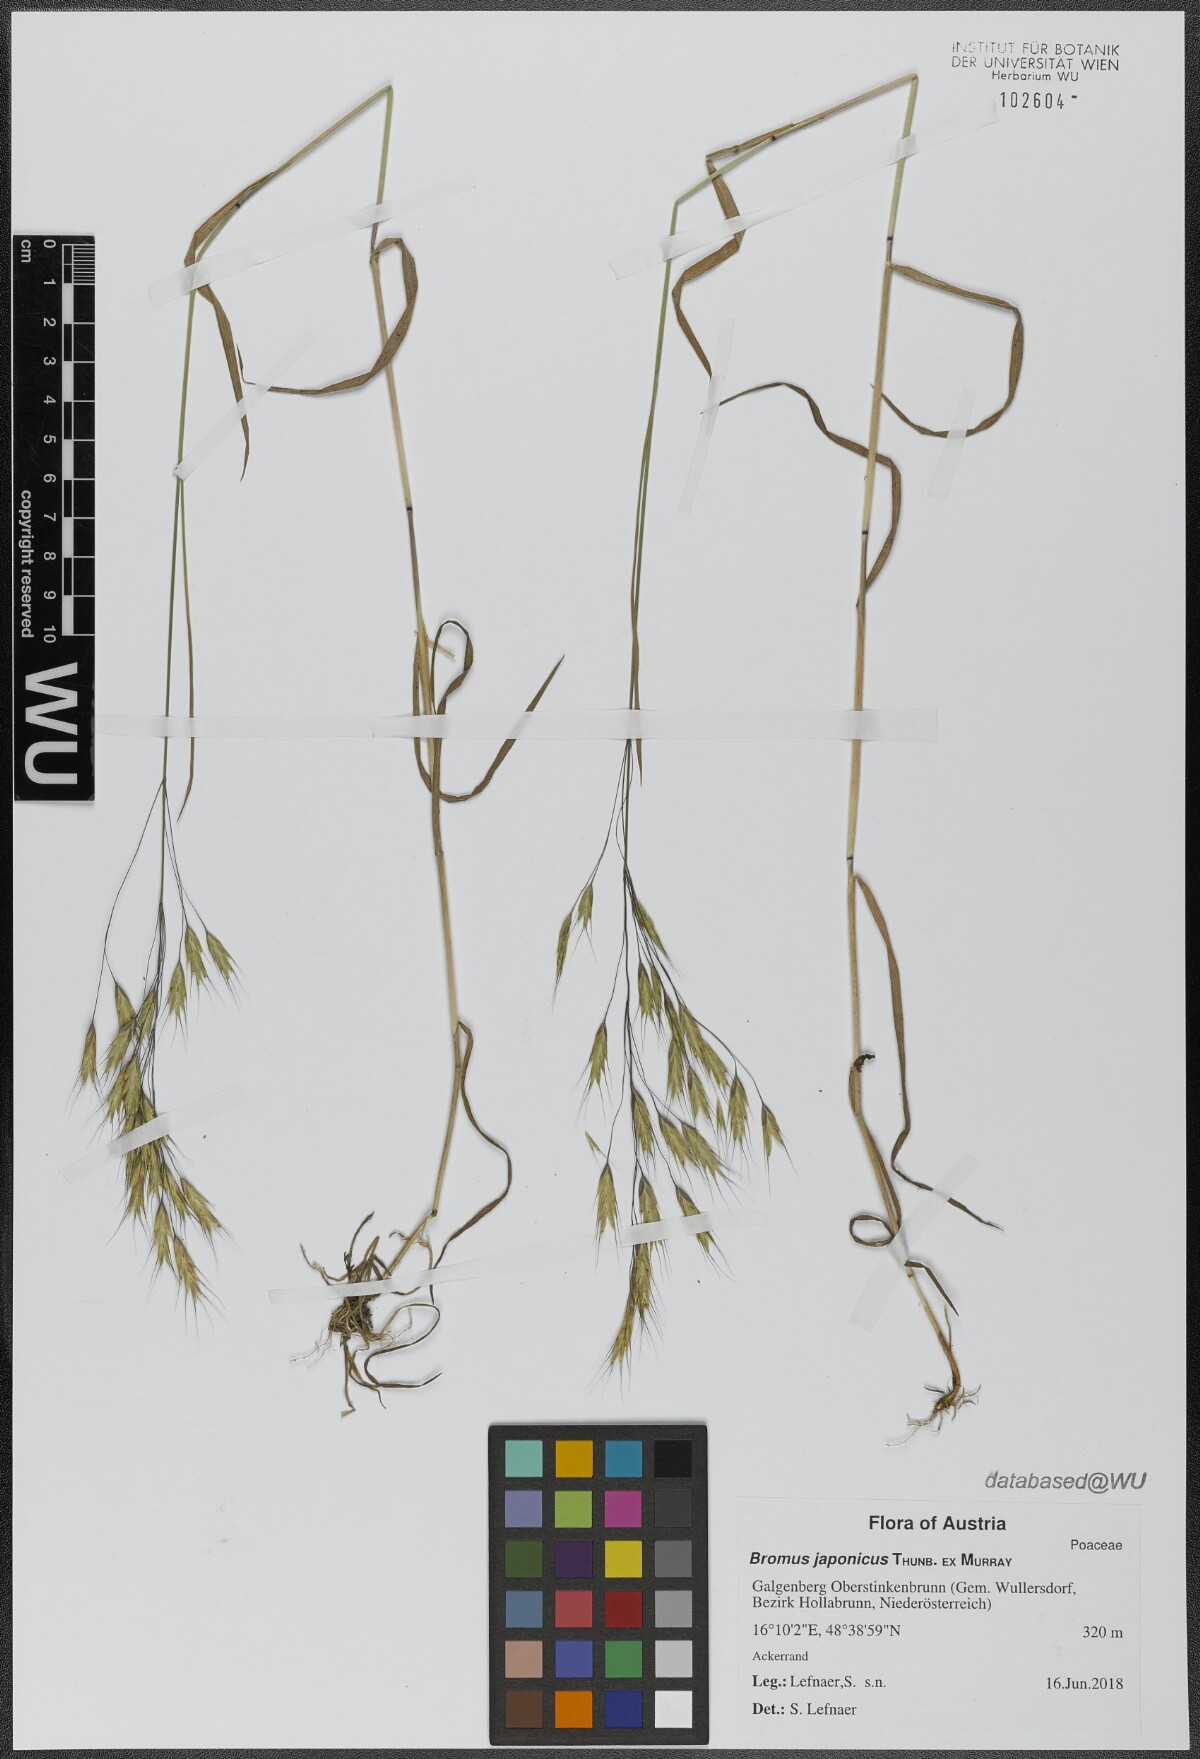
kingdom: Plantae
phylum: Tracheophyta
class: Liliopsida
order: Poales
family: Poaceae
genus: Bromus
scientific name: Bromus japonicus
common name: Japanese brome
